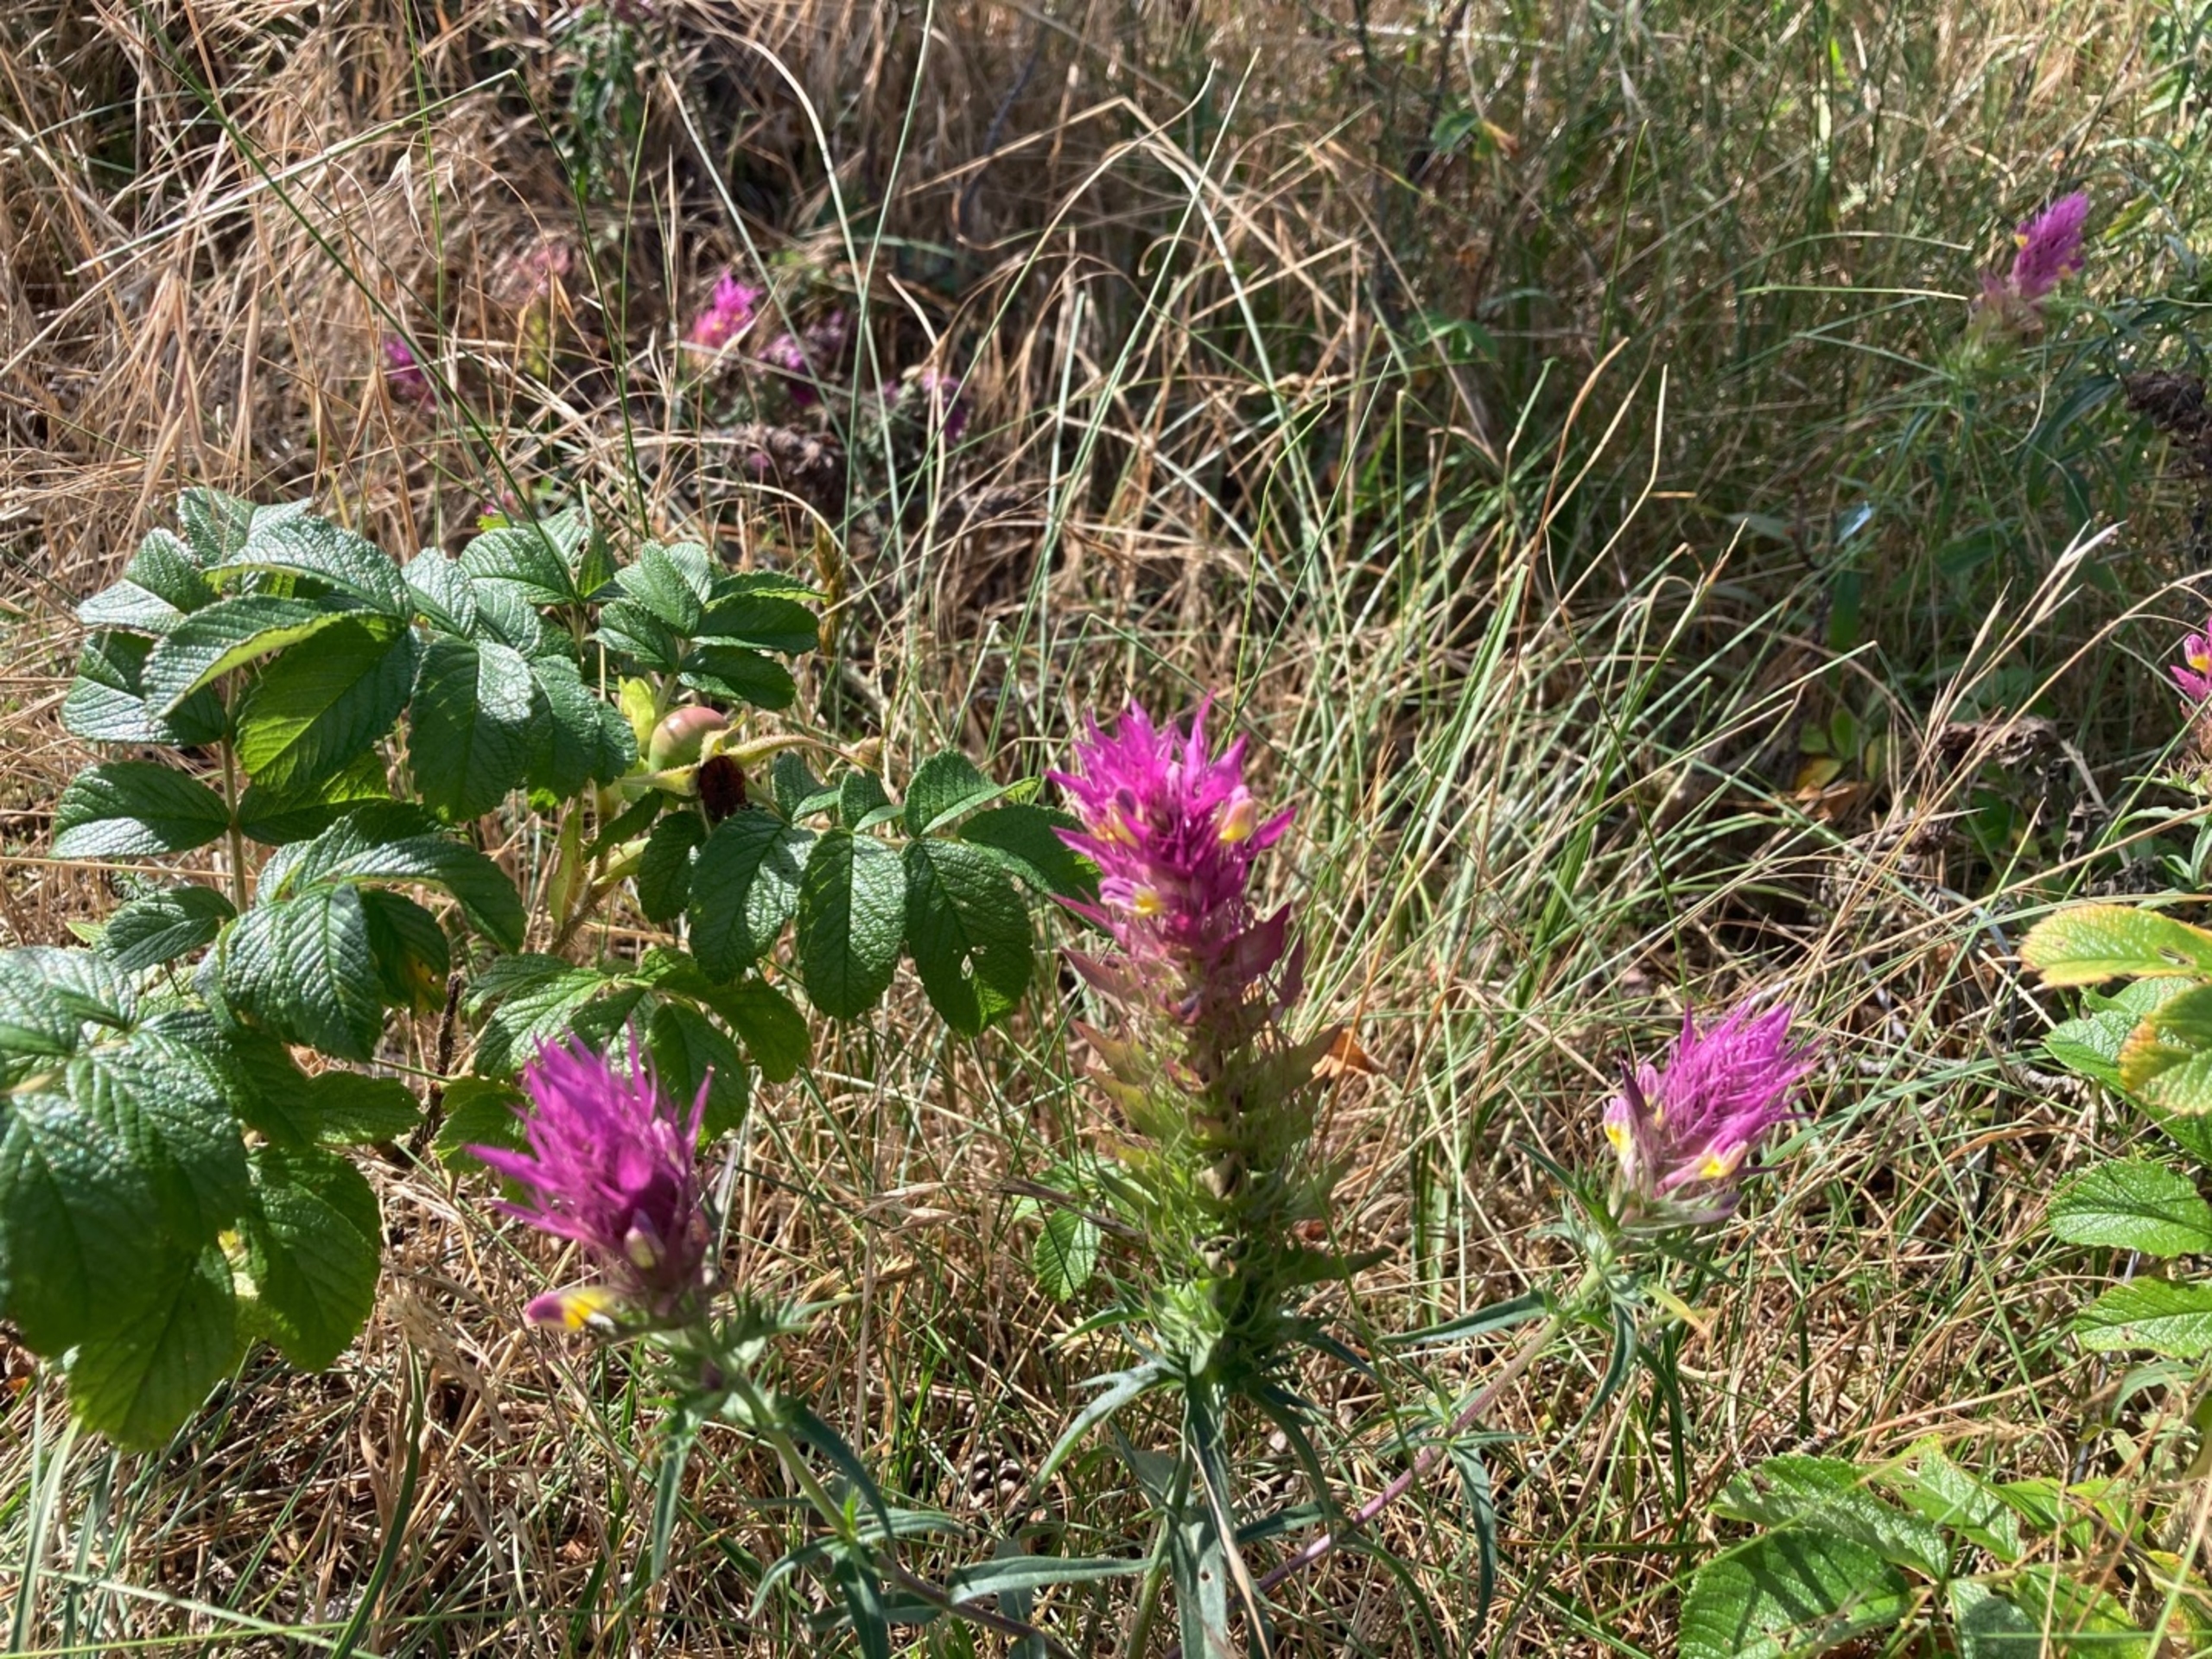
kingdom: Plantae
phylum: Tracheophyta
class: Magnoliopsida
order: Lamiales
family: Orobanchaceae
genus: Melampyrum
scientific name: Melampyrum arvense
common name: Ager-kohvede
